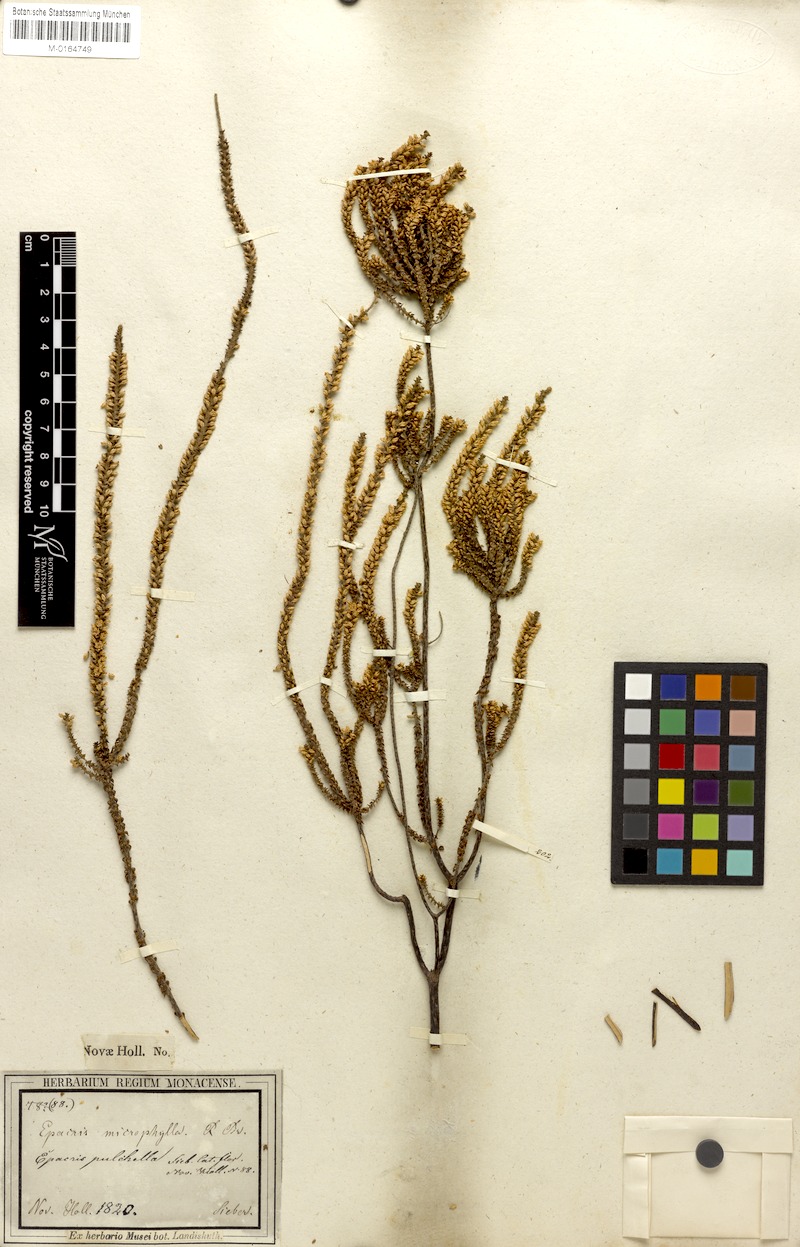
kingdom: Plantae
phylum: Tracheophyta
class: Magnoliopsida
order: Ericales
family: Ericaceae
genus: Epacris
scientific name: Epacris microphylla
